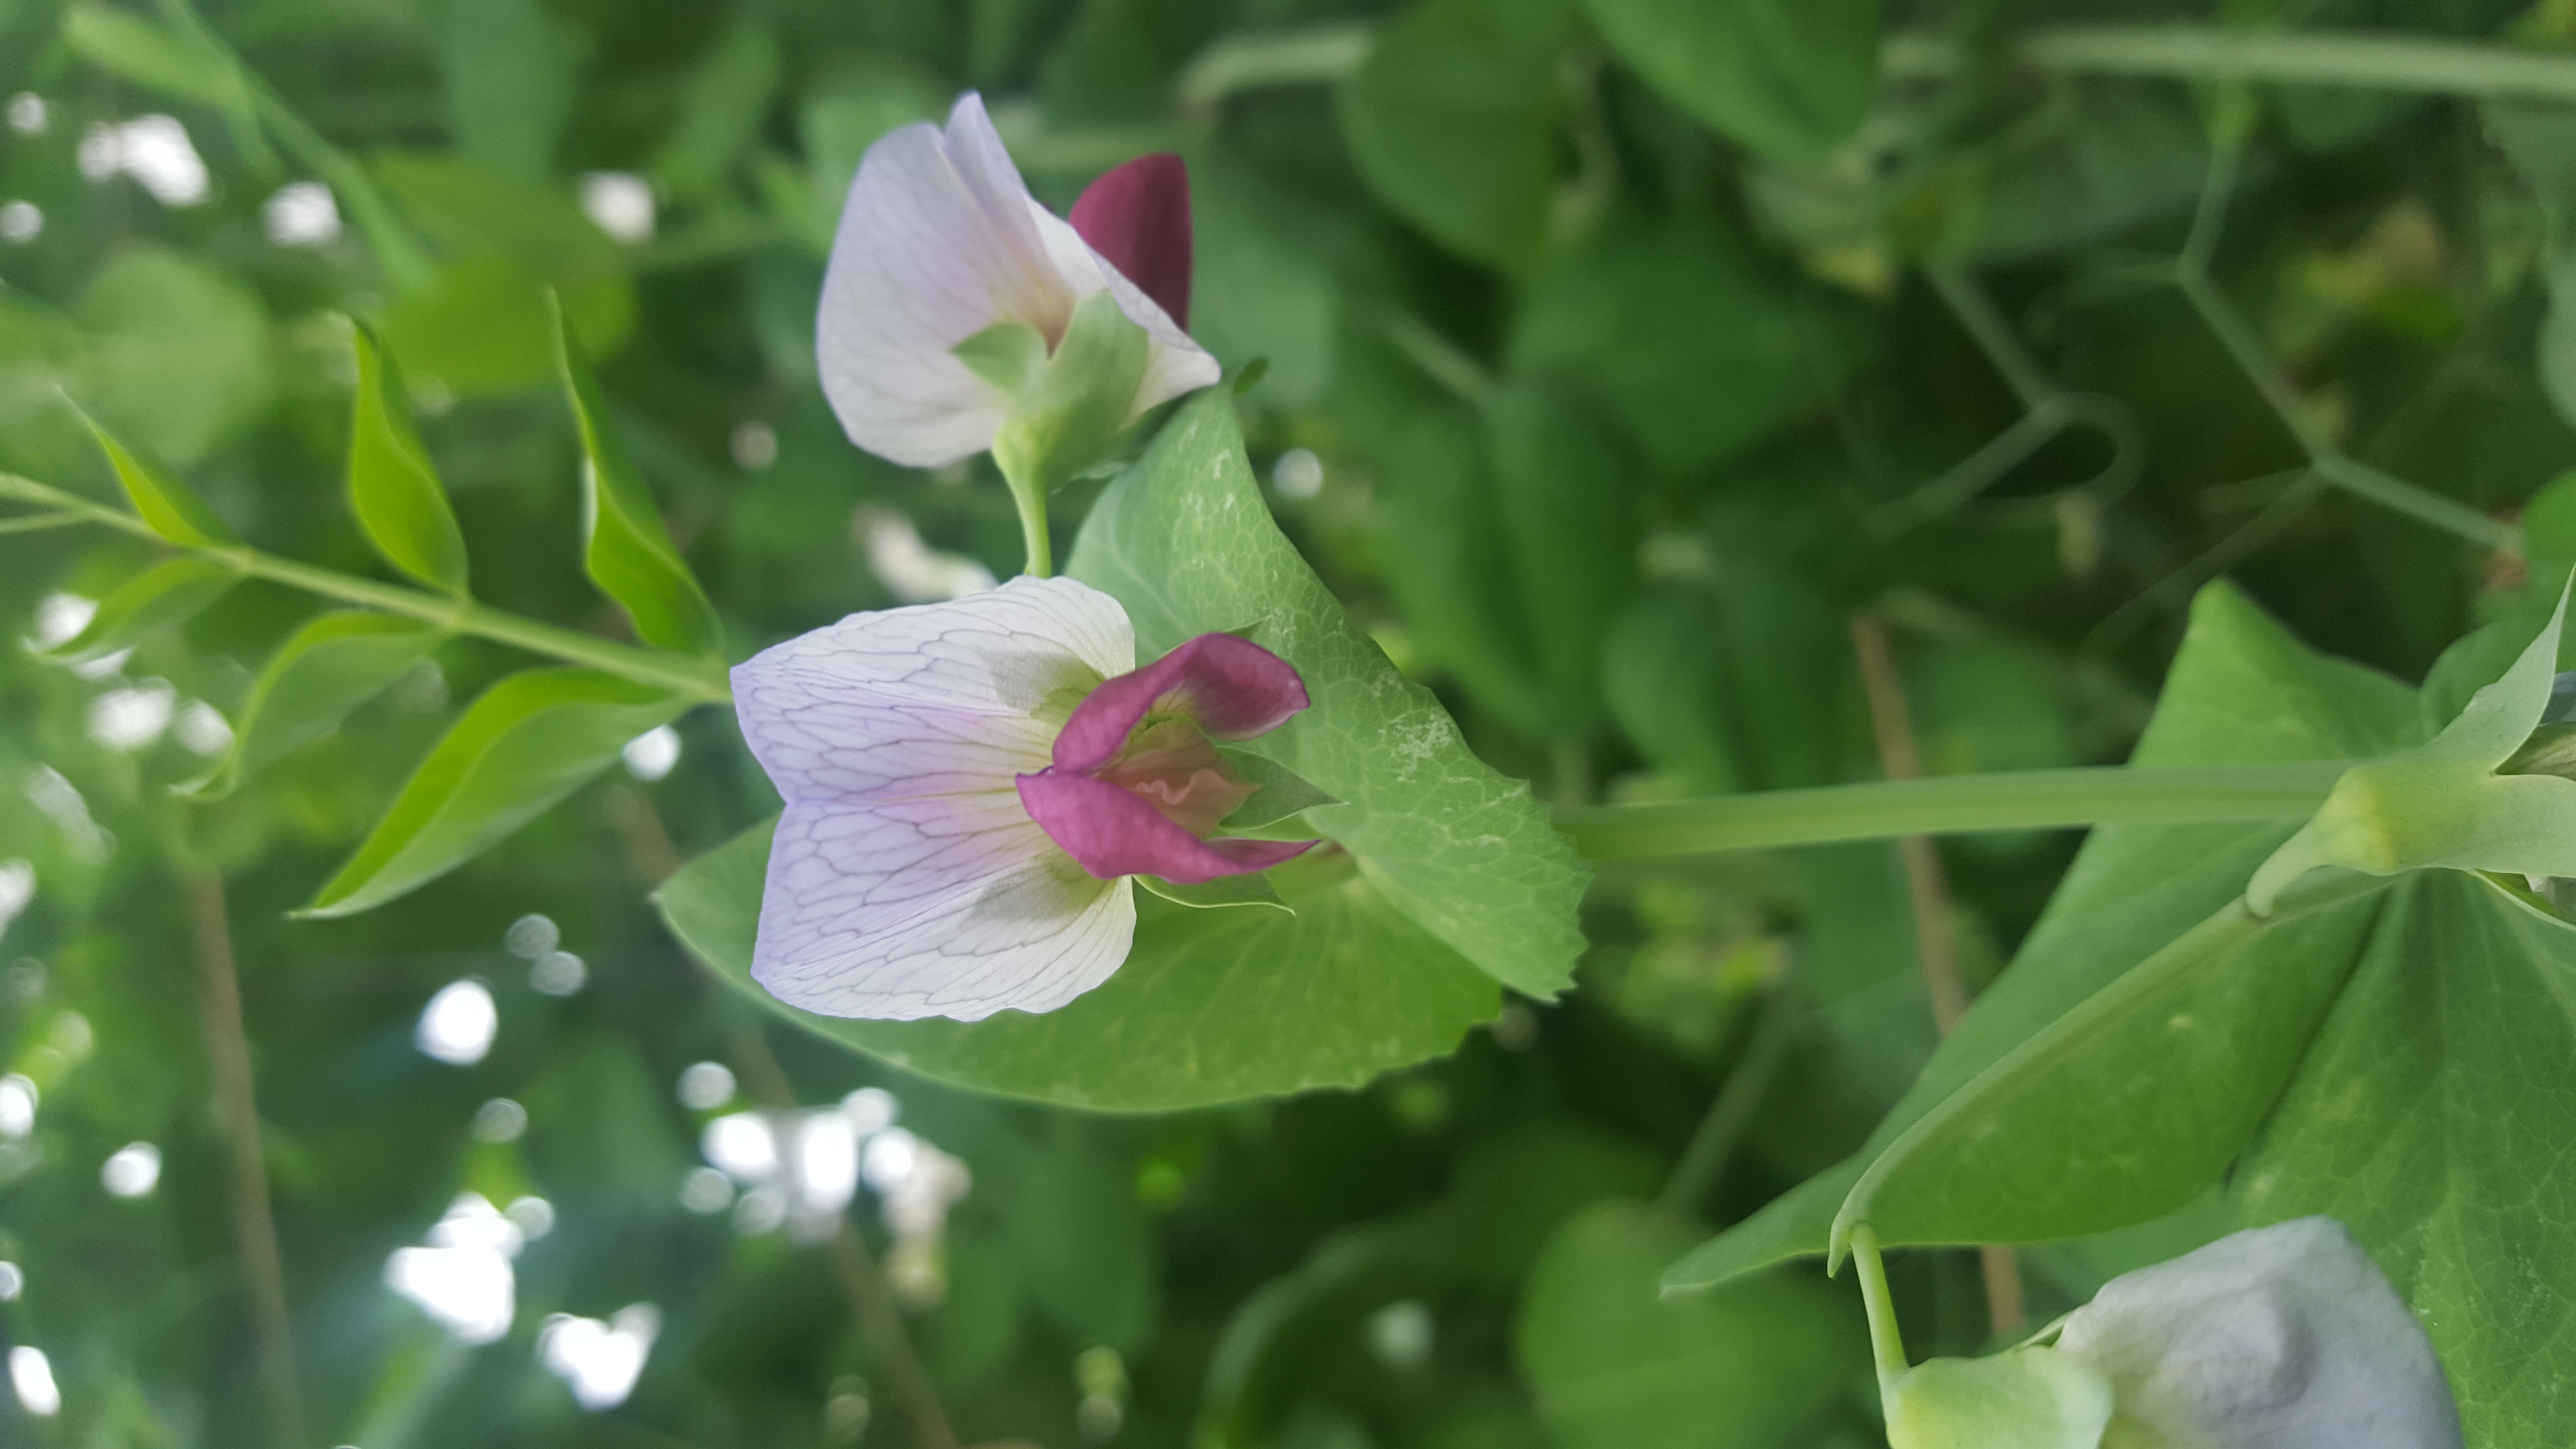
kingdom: Plantae
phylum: Tracheophyta
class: Magnoliopsida
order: Fabales
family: Fabaceae
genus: Lathyrus
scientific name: Lathyrus oleraceus
